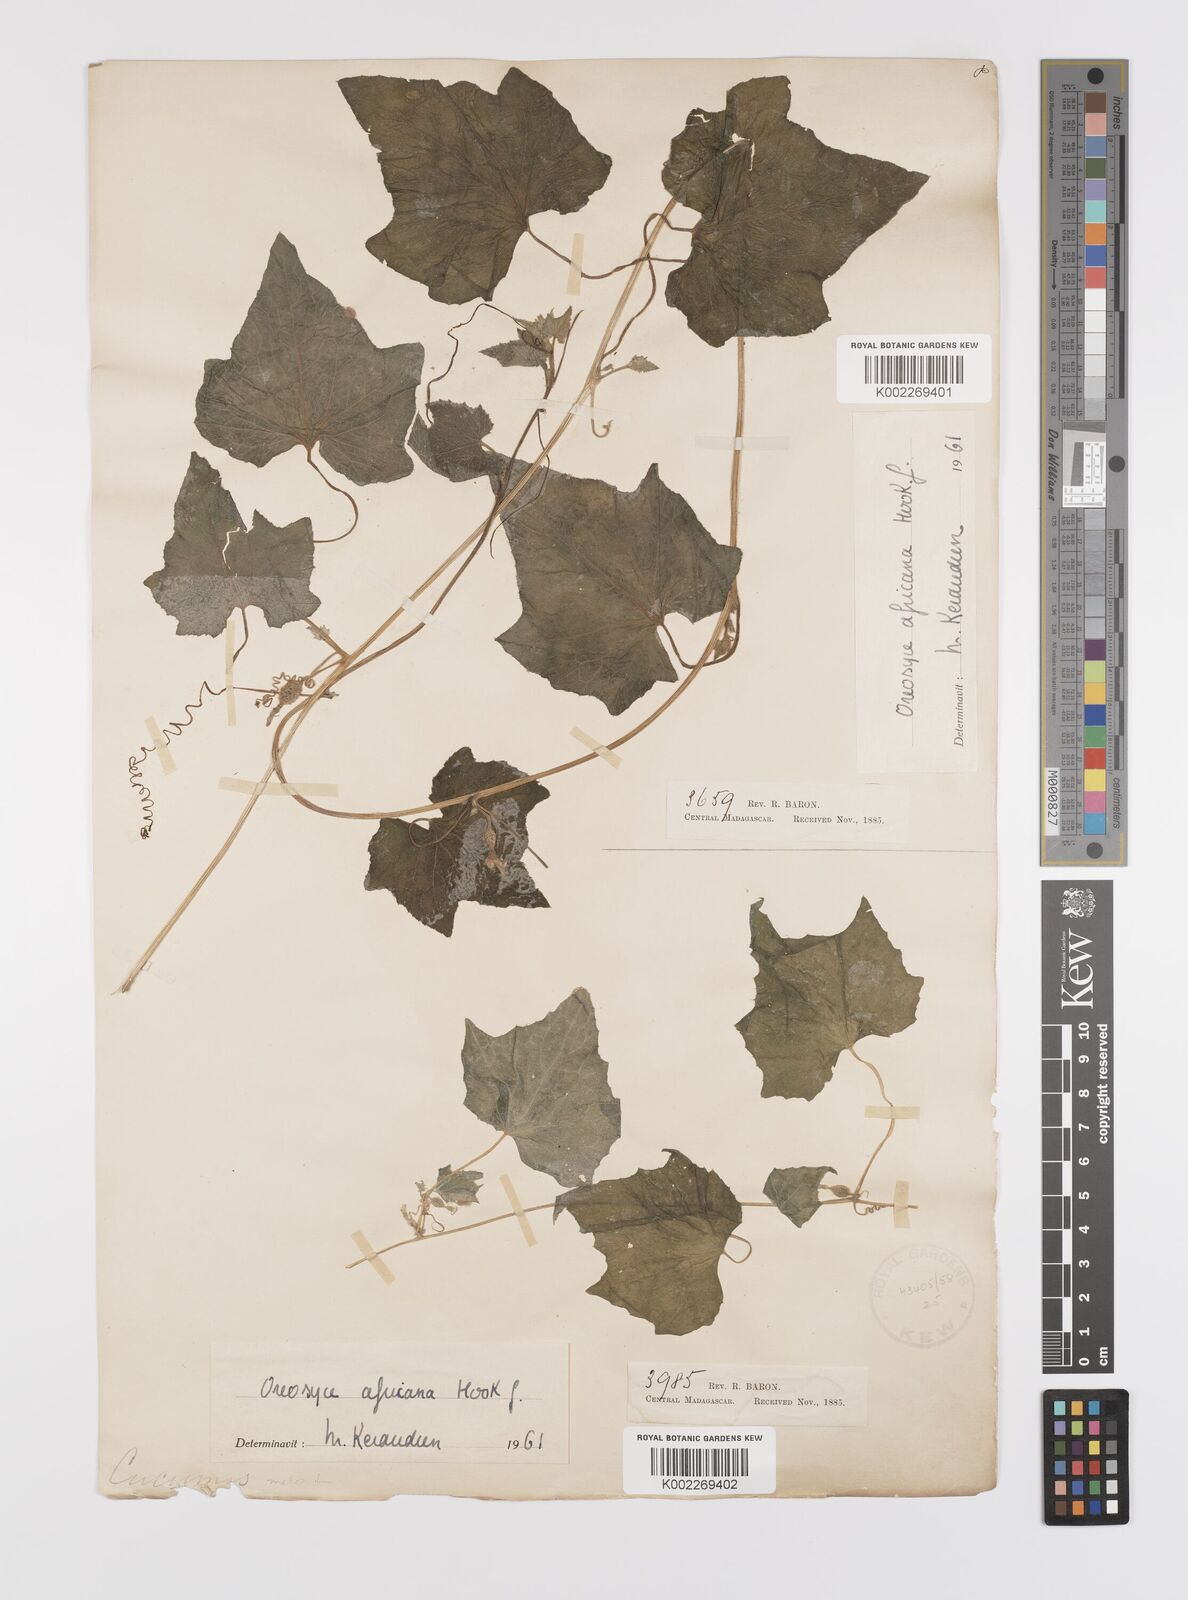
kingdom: Plantae
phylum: Tracheophyta
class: Magnoliopsida
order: Cucurbitales
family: Cucurbitaceae
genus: Cucumis
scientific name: Cucumis oreosyce
